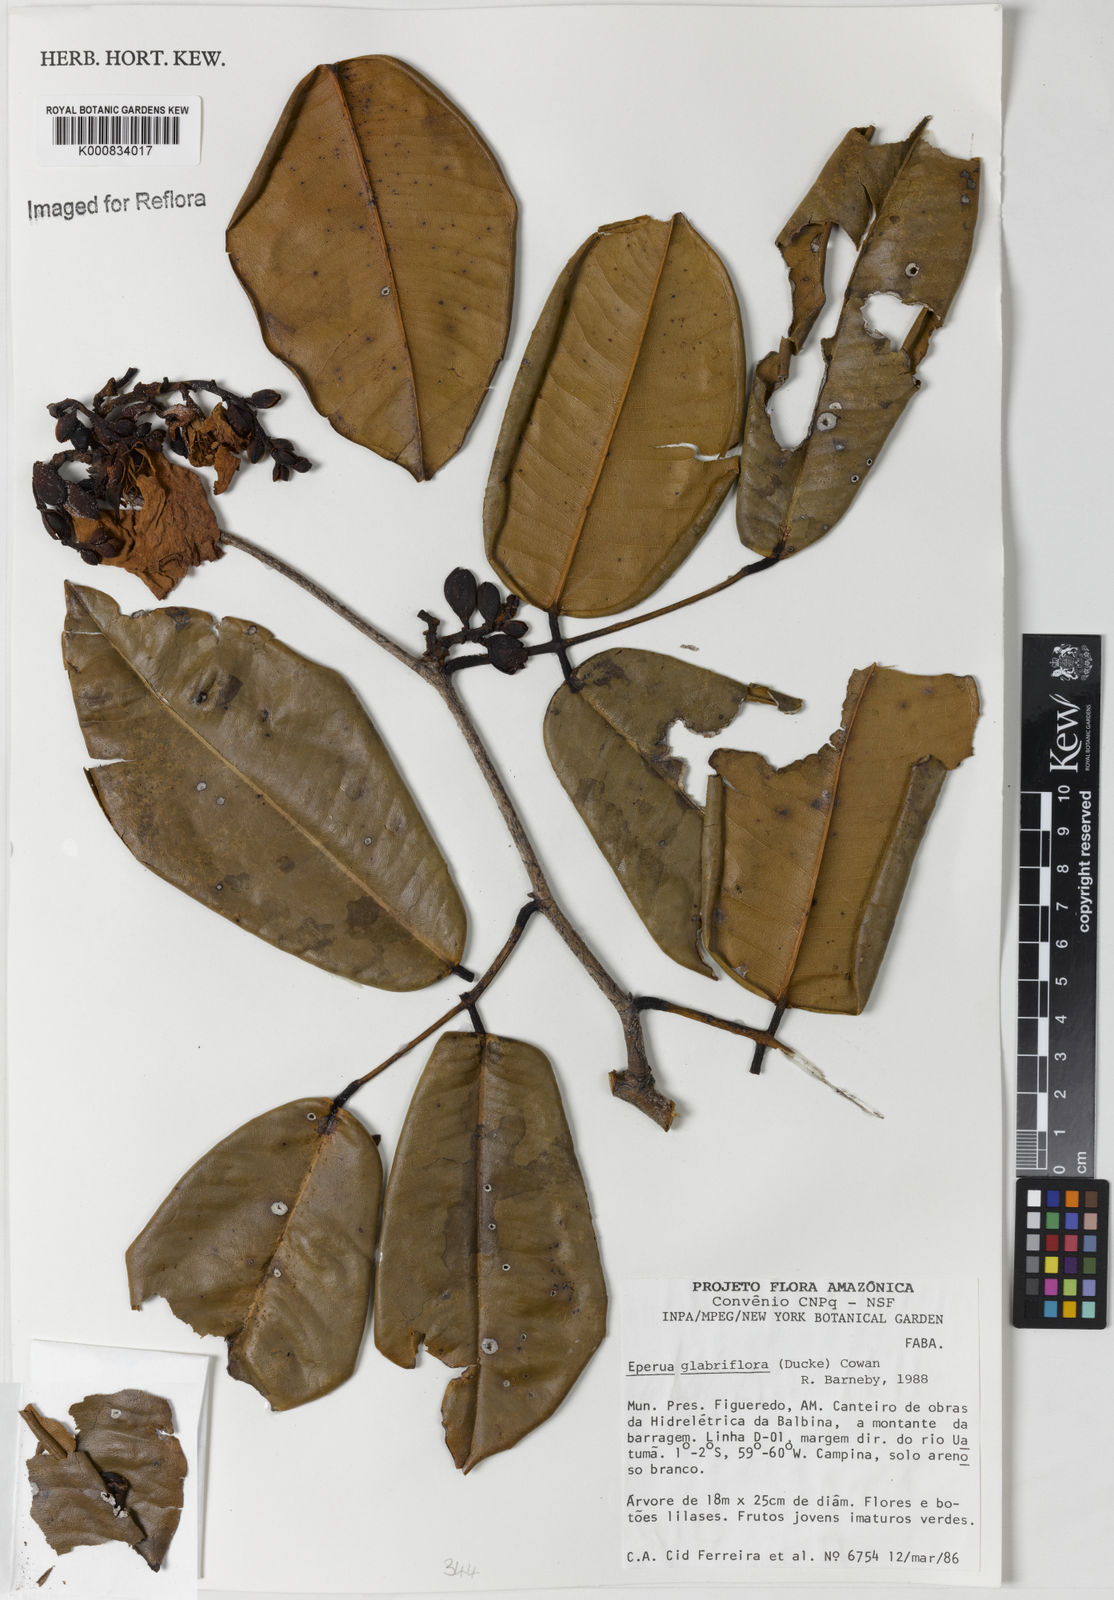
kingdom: Plantae
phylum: Tracheophyta
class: Magnoliopsida
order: Fabales
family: Fabaceae
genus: Eperua
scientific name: Eperua glabriflora
